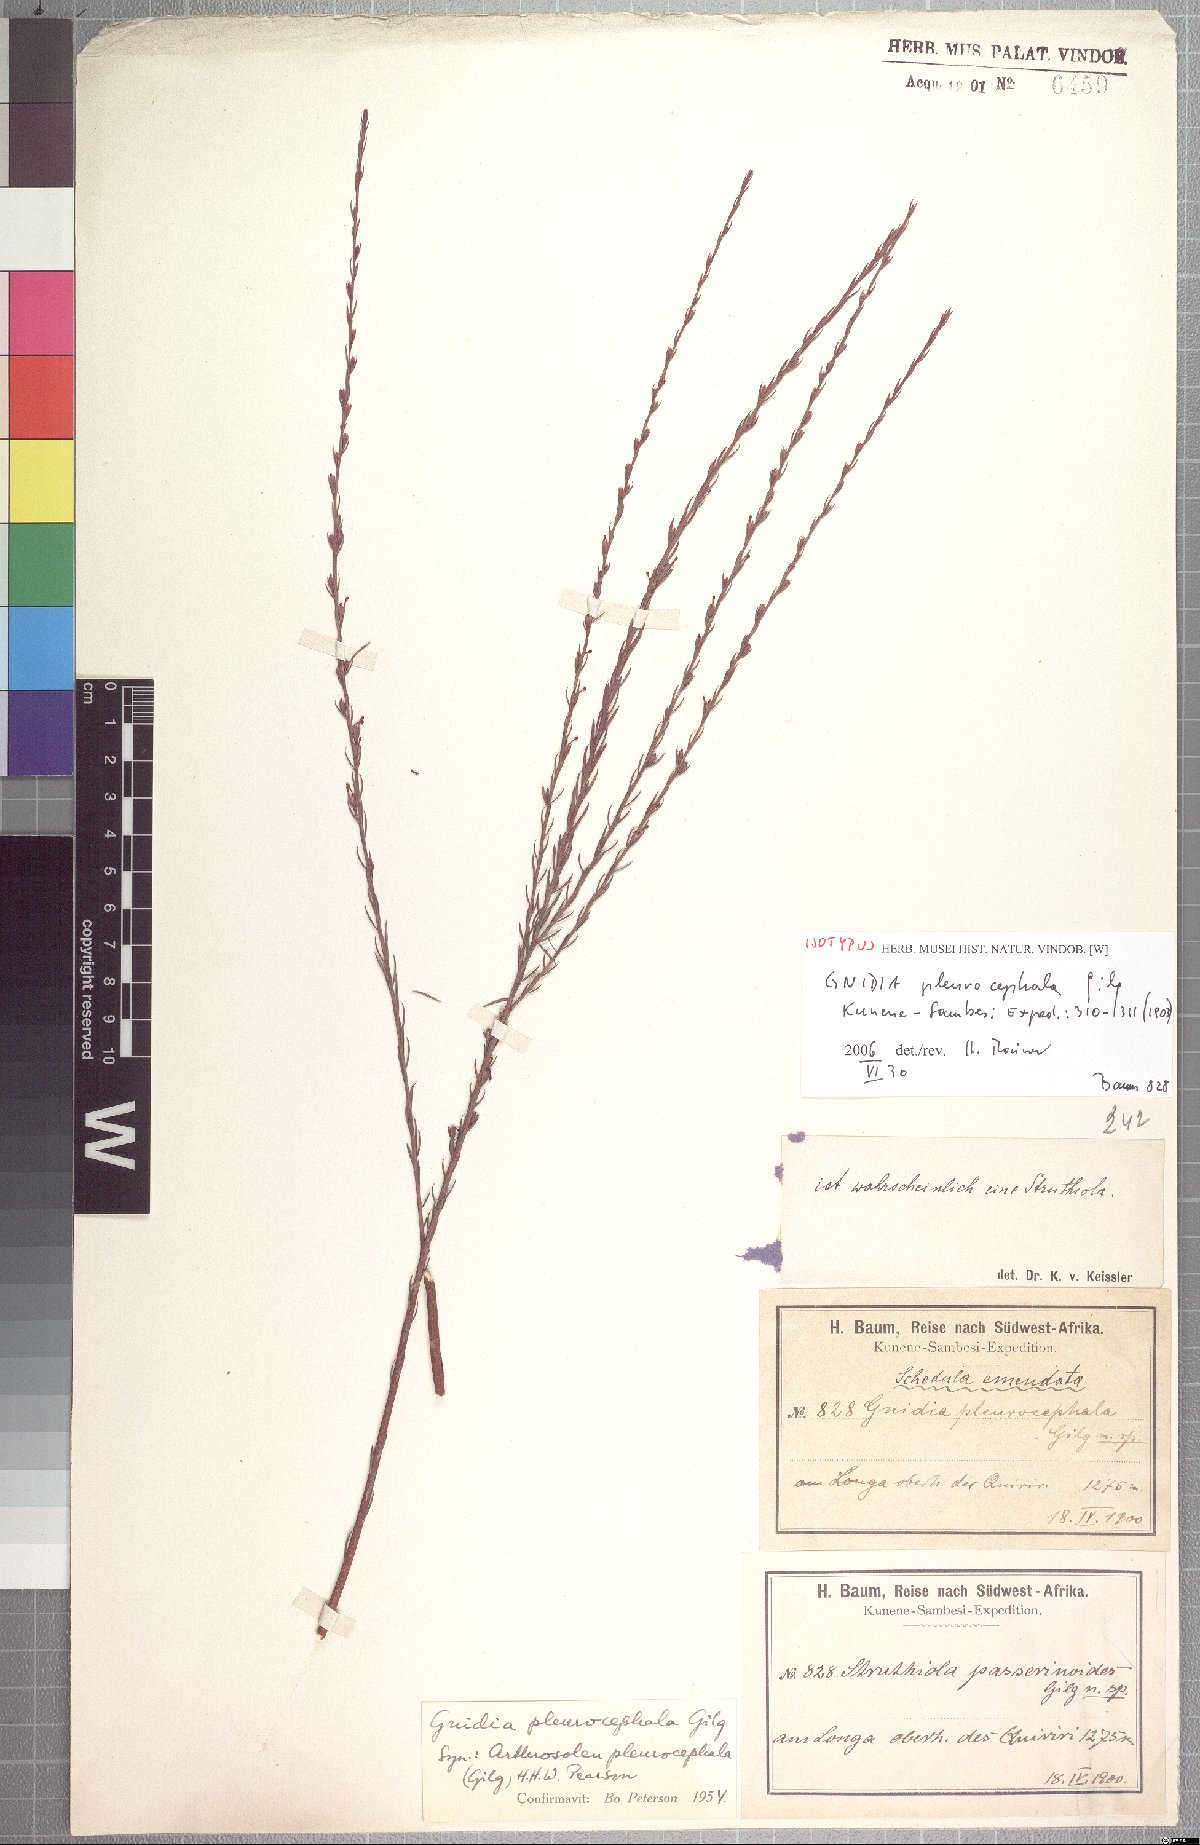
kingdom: Plantae
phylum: Tracheophyta
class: Magnoliopsida
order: Malvales
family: Thymelaeaceae
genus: Gnidia
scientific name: Gnidia pleurocephala
